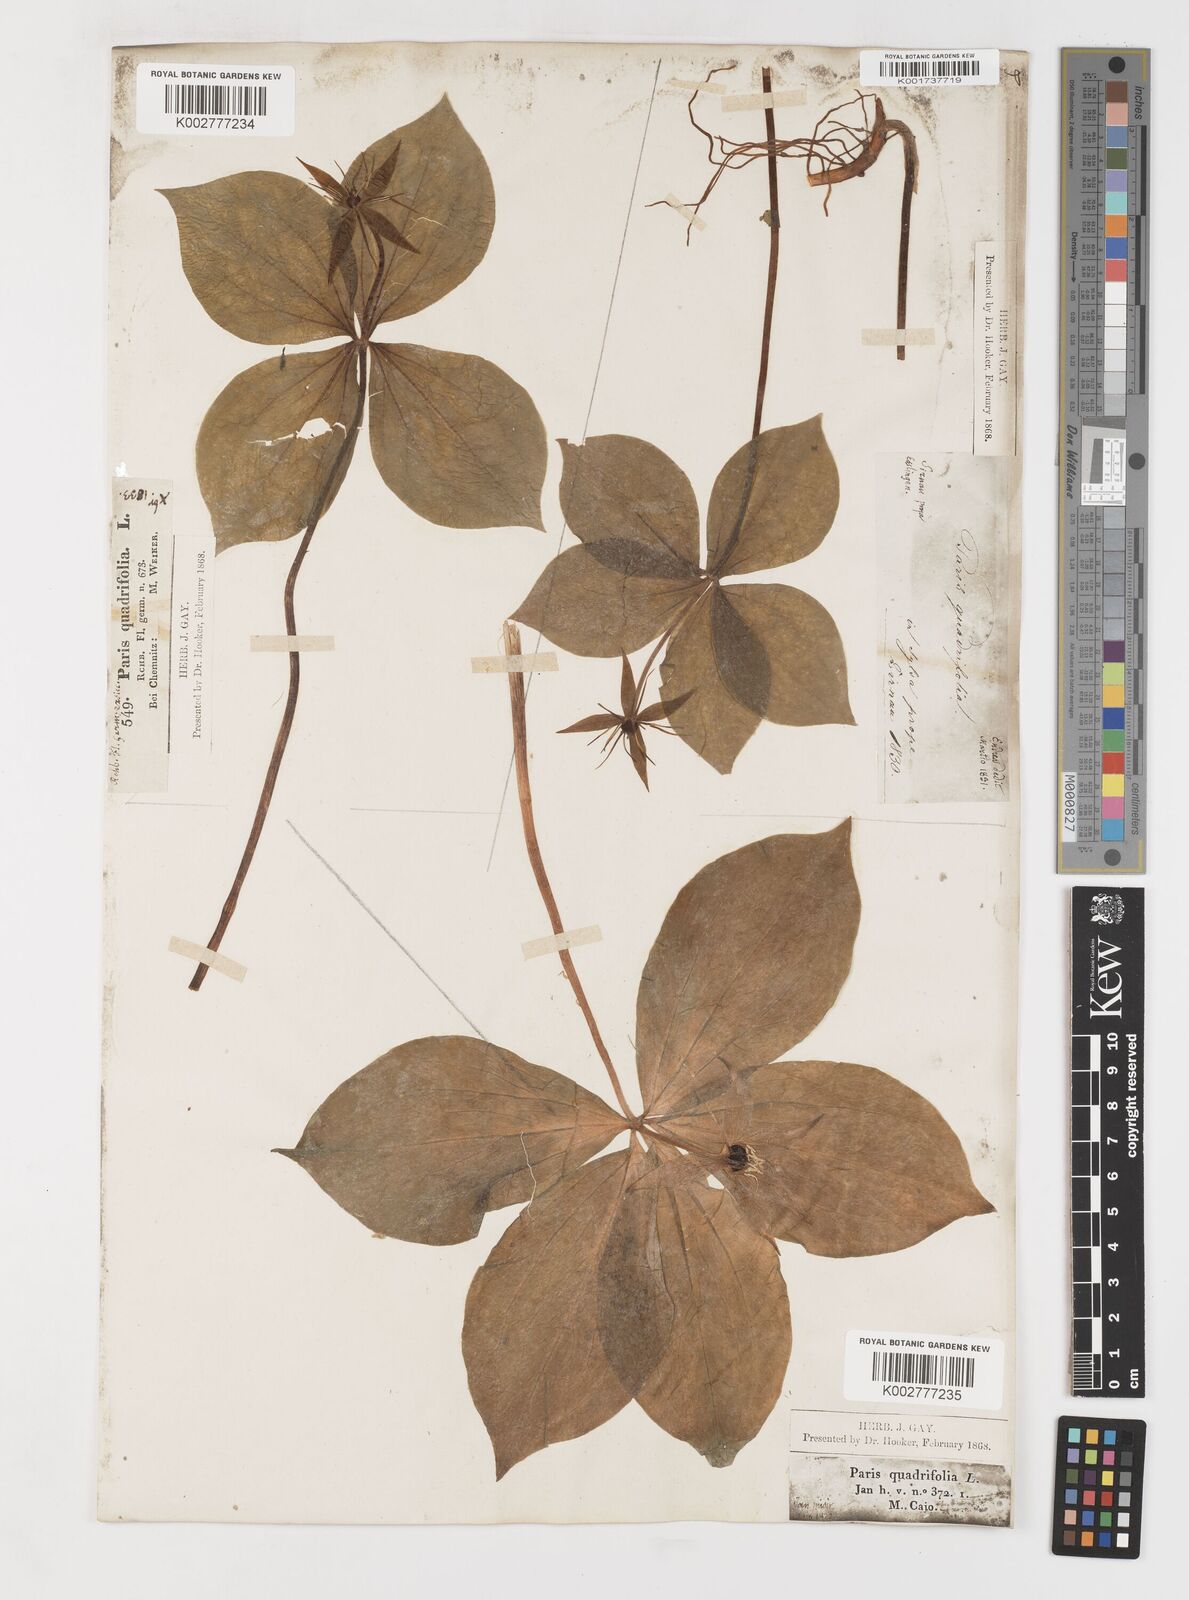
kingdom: Plantae
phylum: Tracheophyta
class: Liliopsida
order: Liliales
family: Melanthiaceae
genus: Paris
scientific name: Paris
